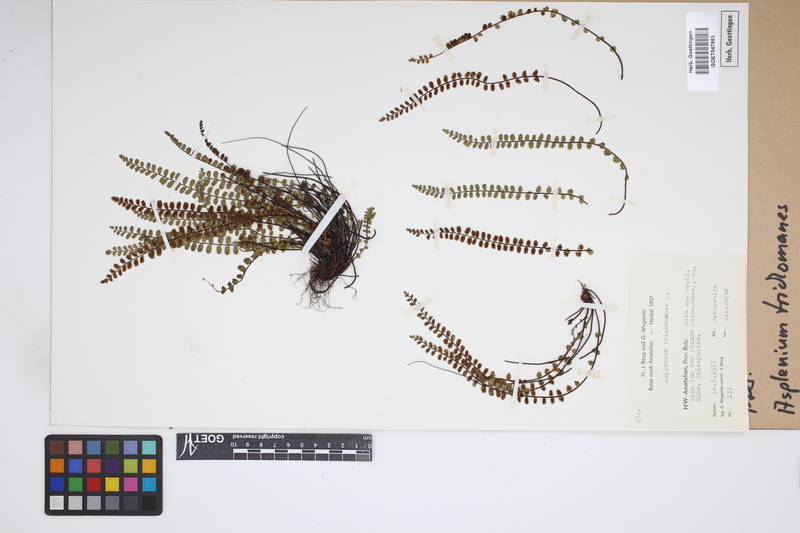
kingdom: Plantae
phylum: Tracheophyta
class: Polypodiopsida
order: Polypodiales
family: Aspleniaceae
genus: Asplenium
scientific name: Asplenium trichomanes
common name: Maidenhair spleenwort
